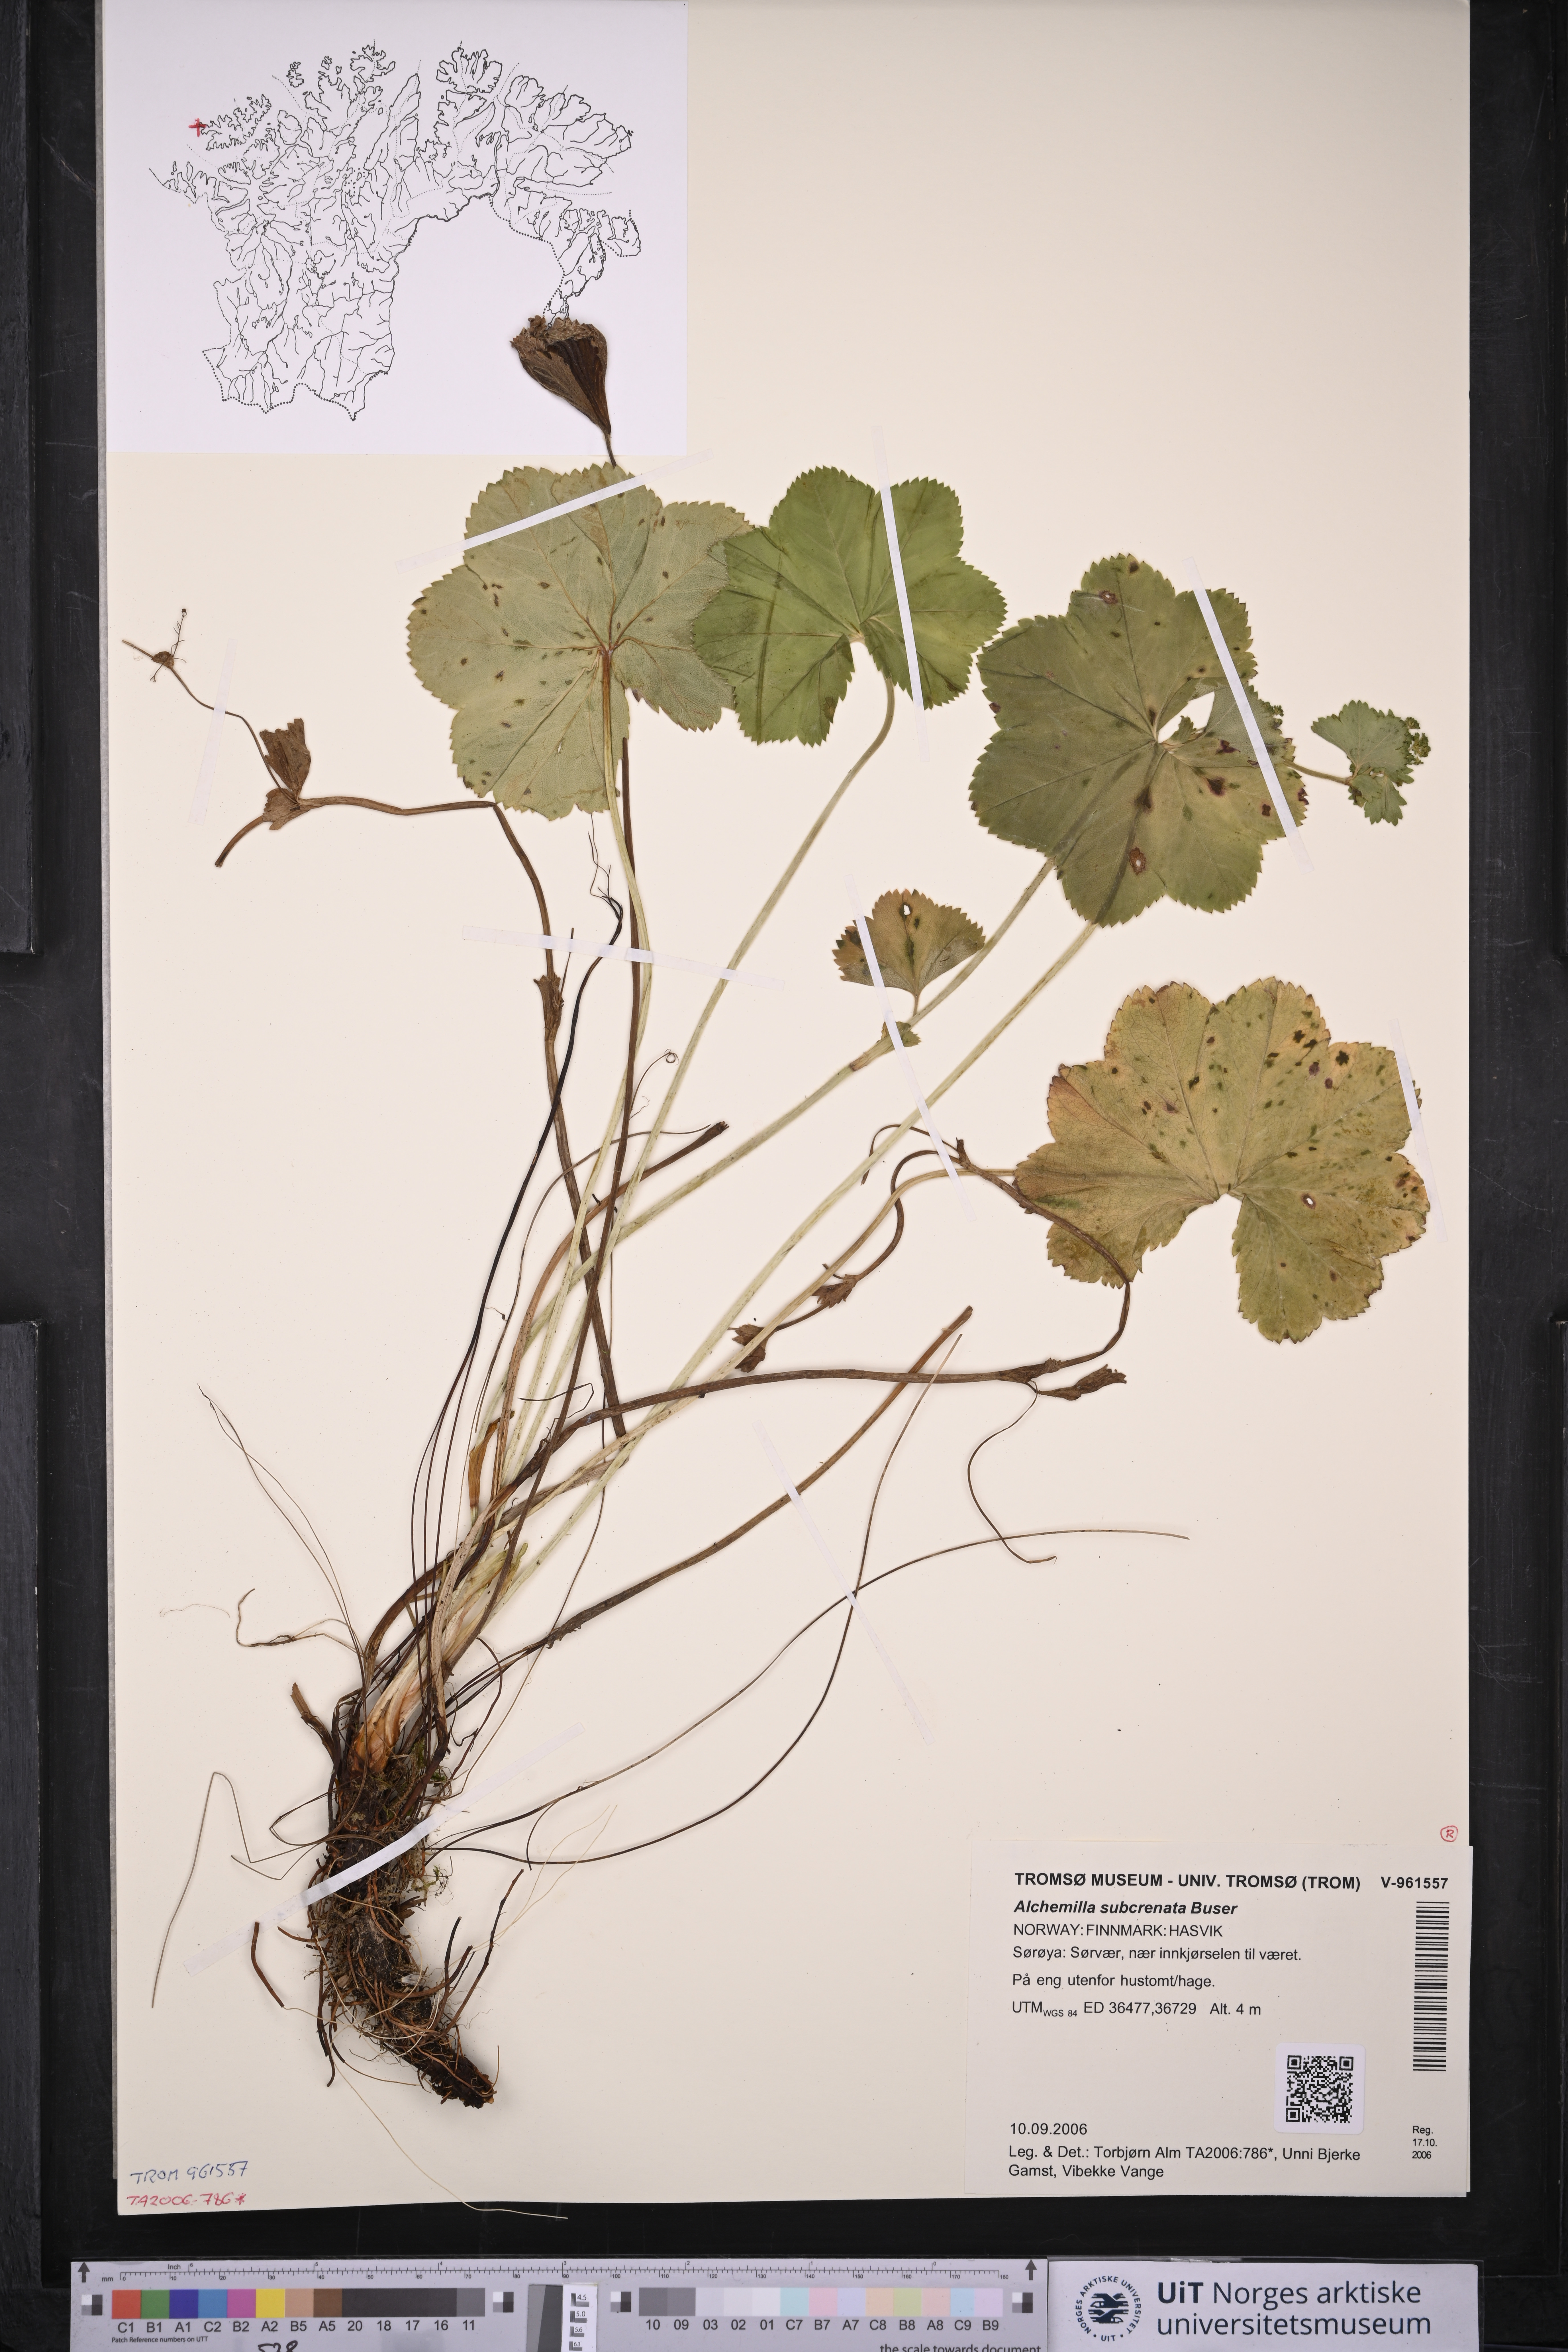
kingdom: Plantae
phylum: Tracheophyta
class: Magnoliopsida
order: Rosales
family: Rosaceae
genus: Alchemilla
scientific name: Alchemilla subcrenata
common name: Broadtooth lady's mantle
